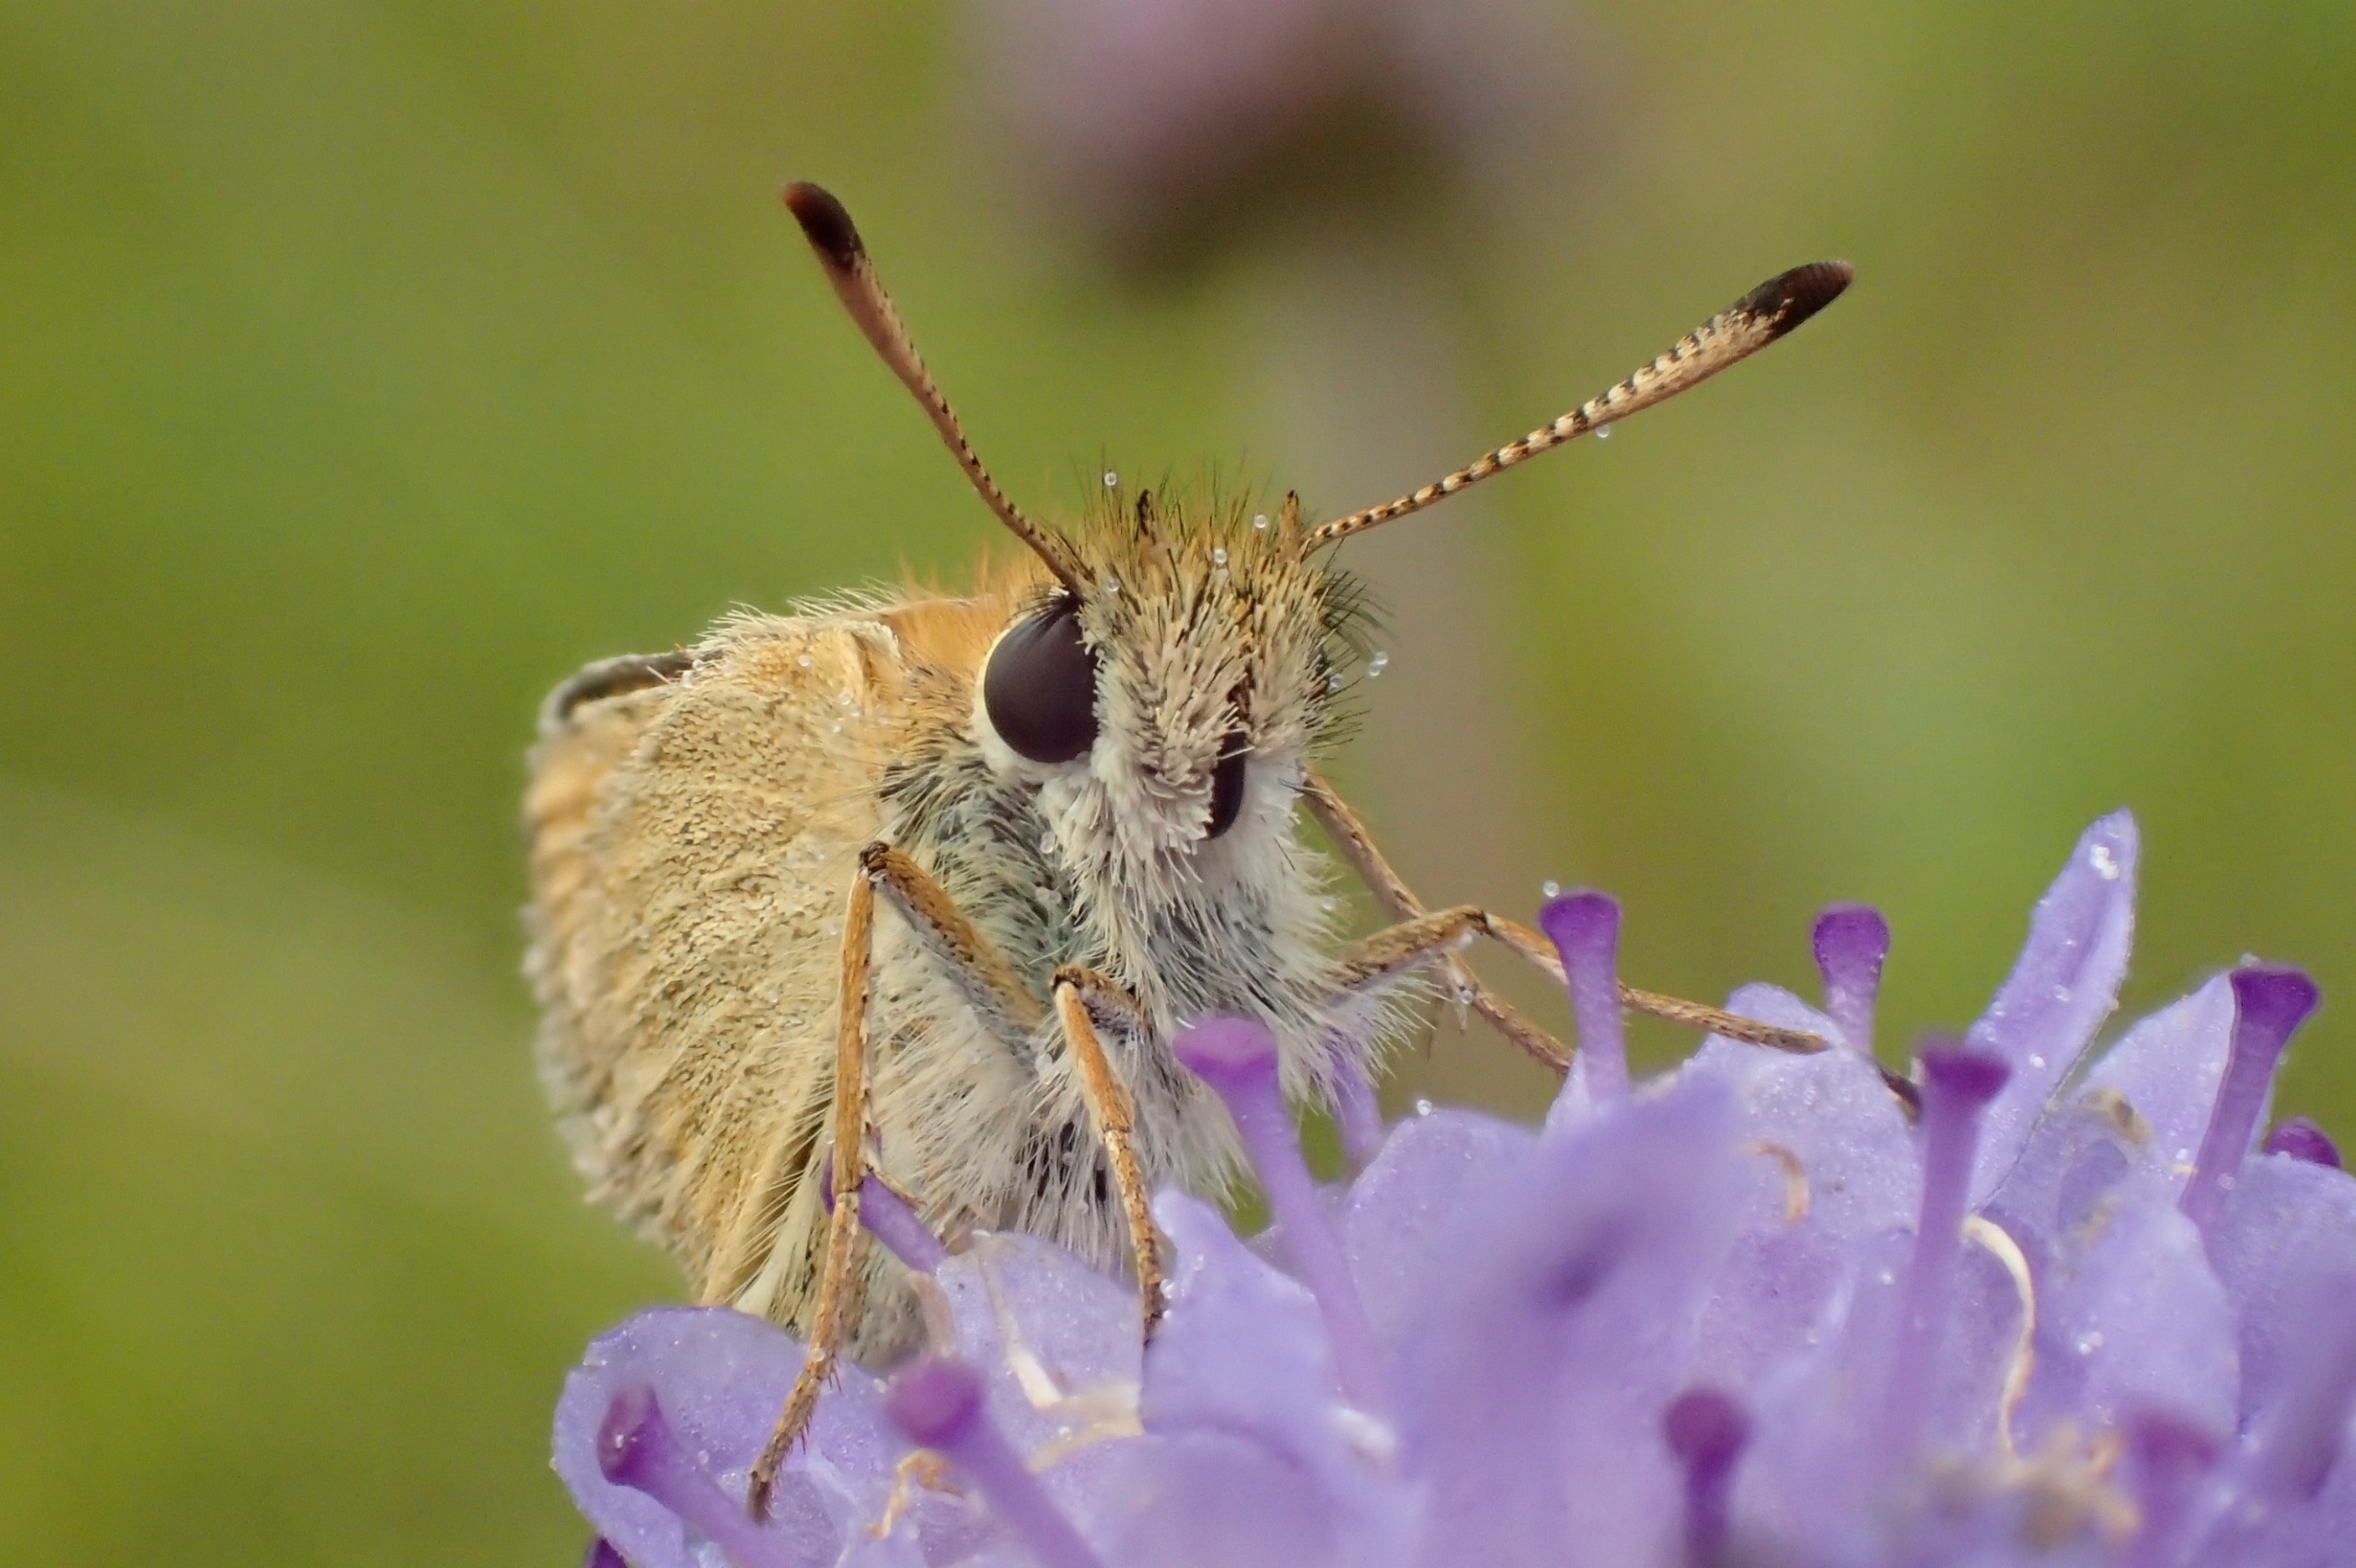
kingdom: Animalia
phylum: Arthropoda
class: Insecta
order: Lepidoptera
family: Hesperiidae
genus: Thymelicus
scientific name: Thymelicus lineola
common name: Stregbredpande
